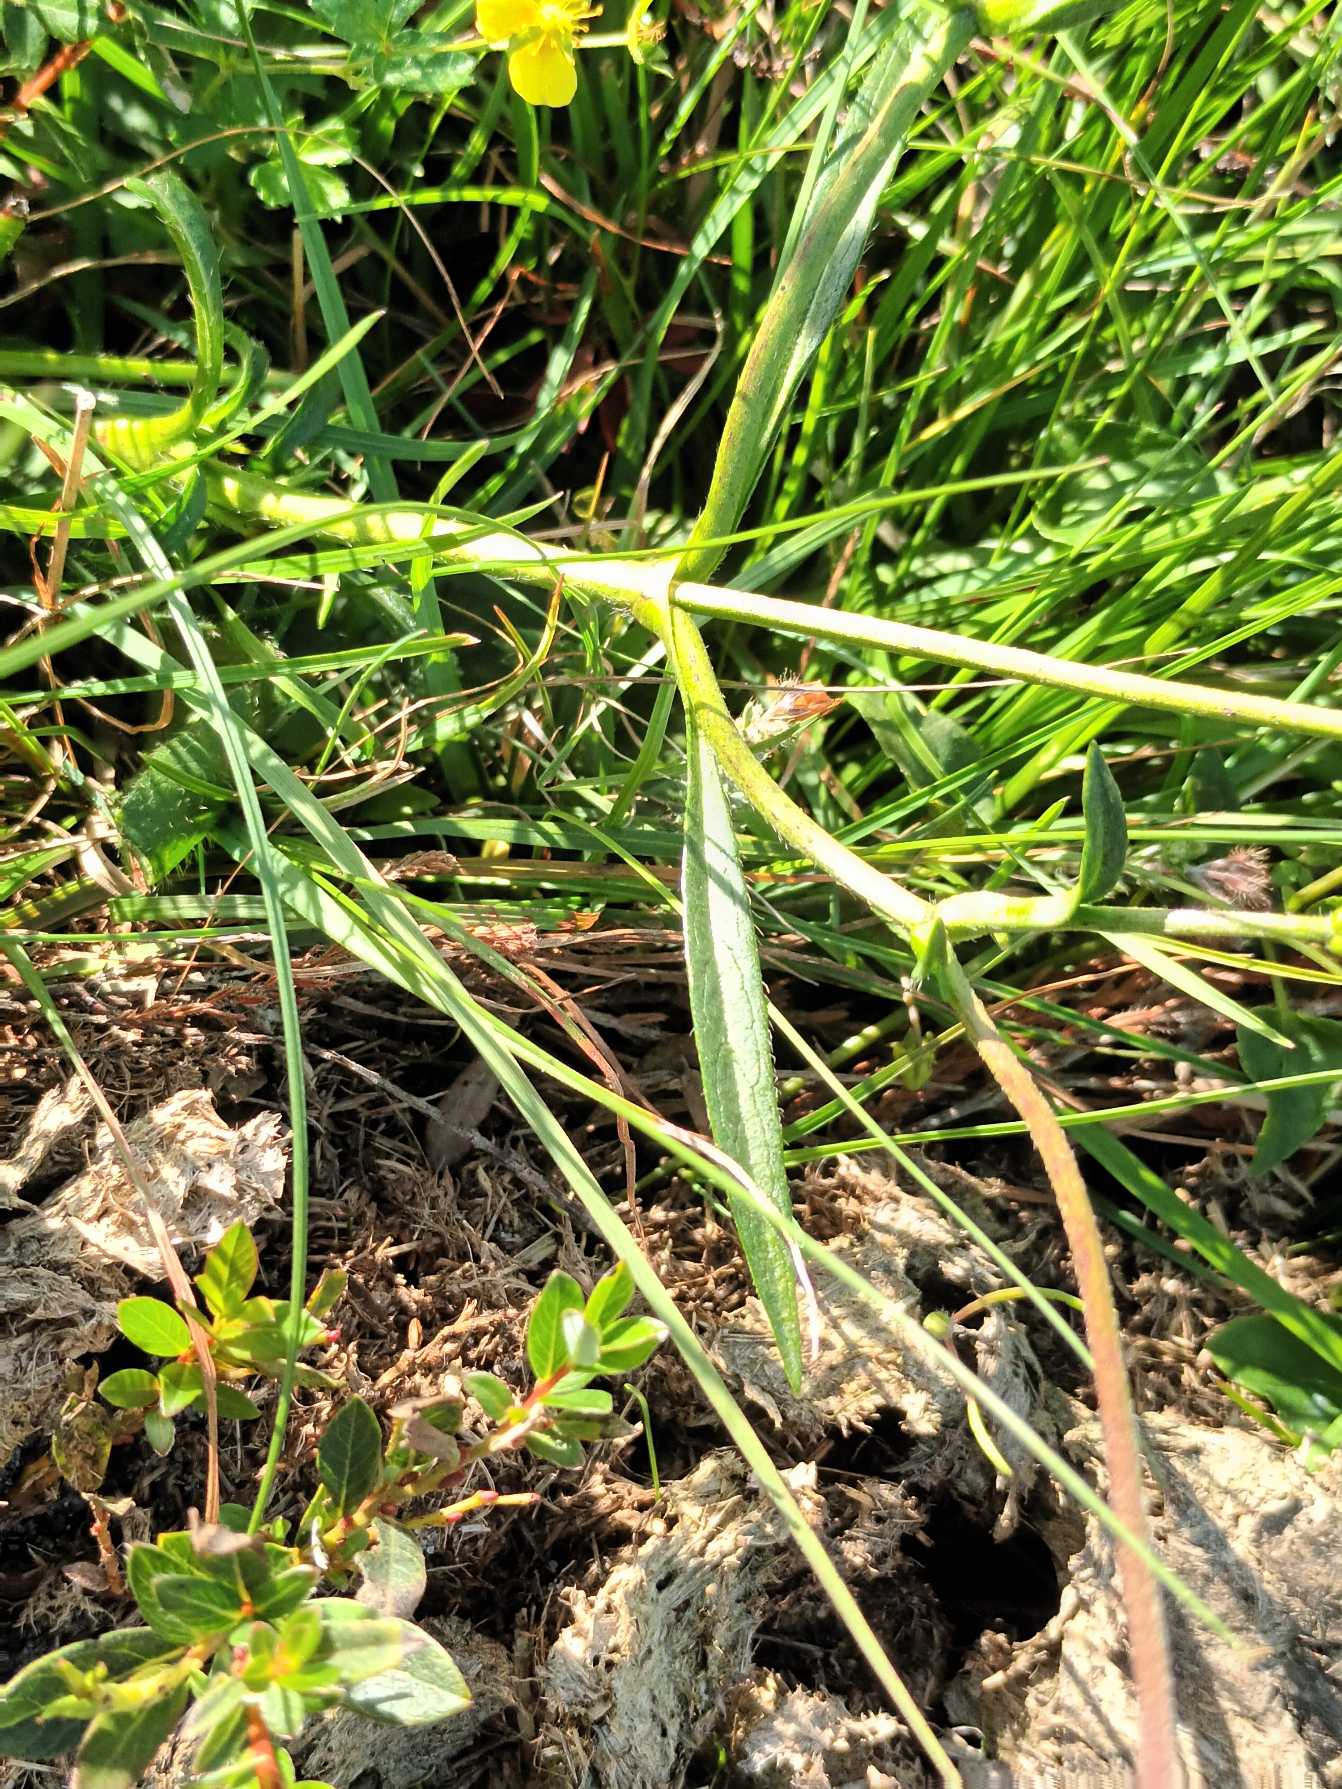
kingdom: Plantae
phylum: Tracheophyta
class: Magnoliopsida
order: Dipsacales
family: Caprifoliaceae
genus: Succisa
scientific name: Succisa pratensis
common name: Djævelsbid
